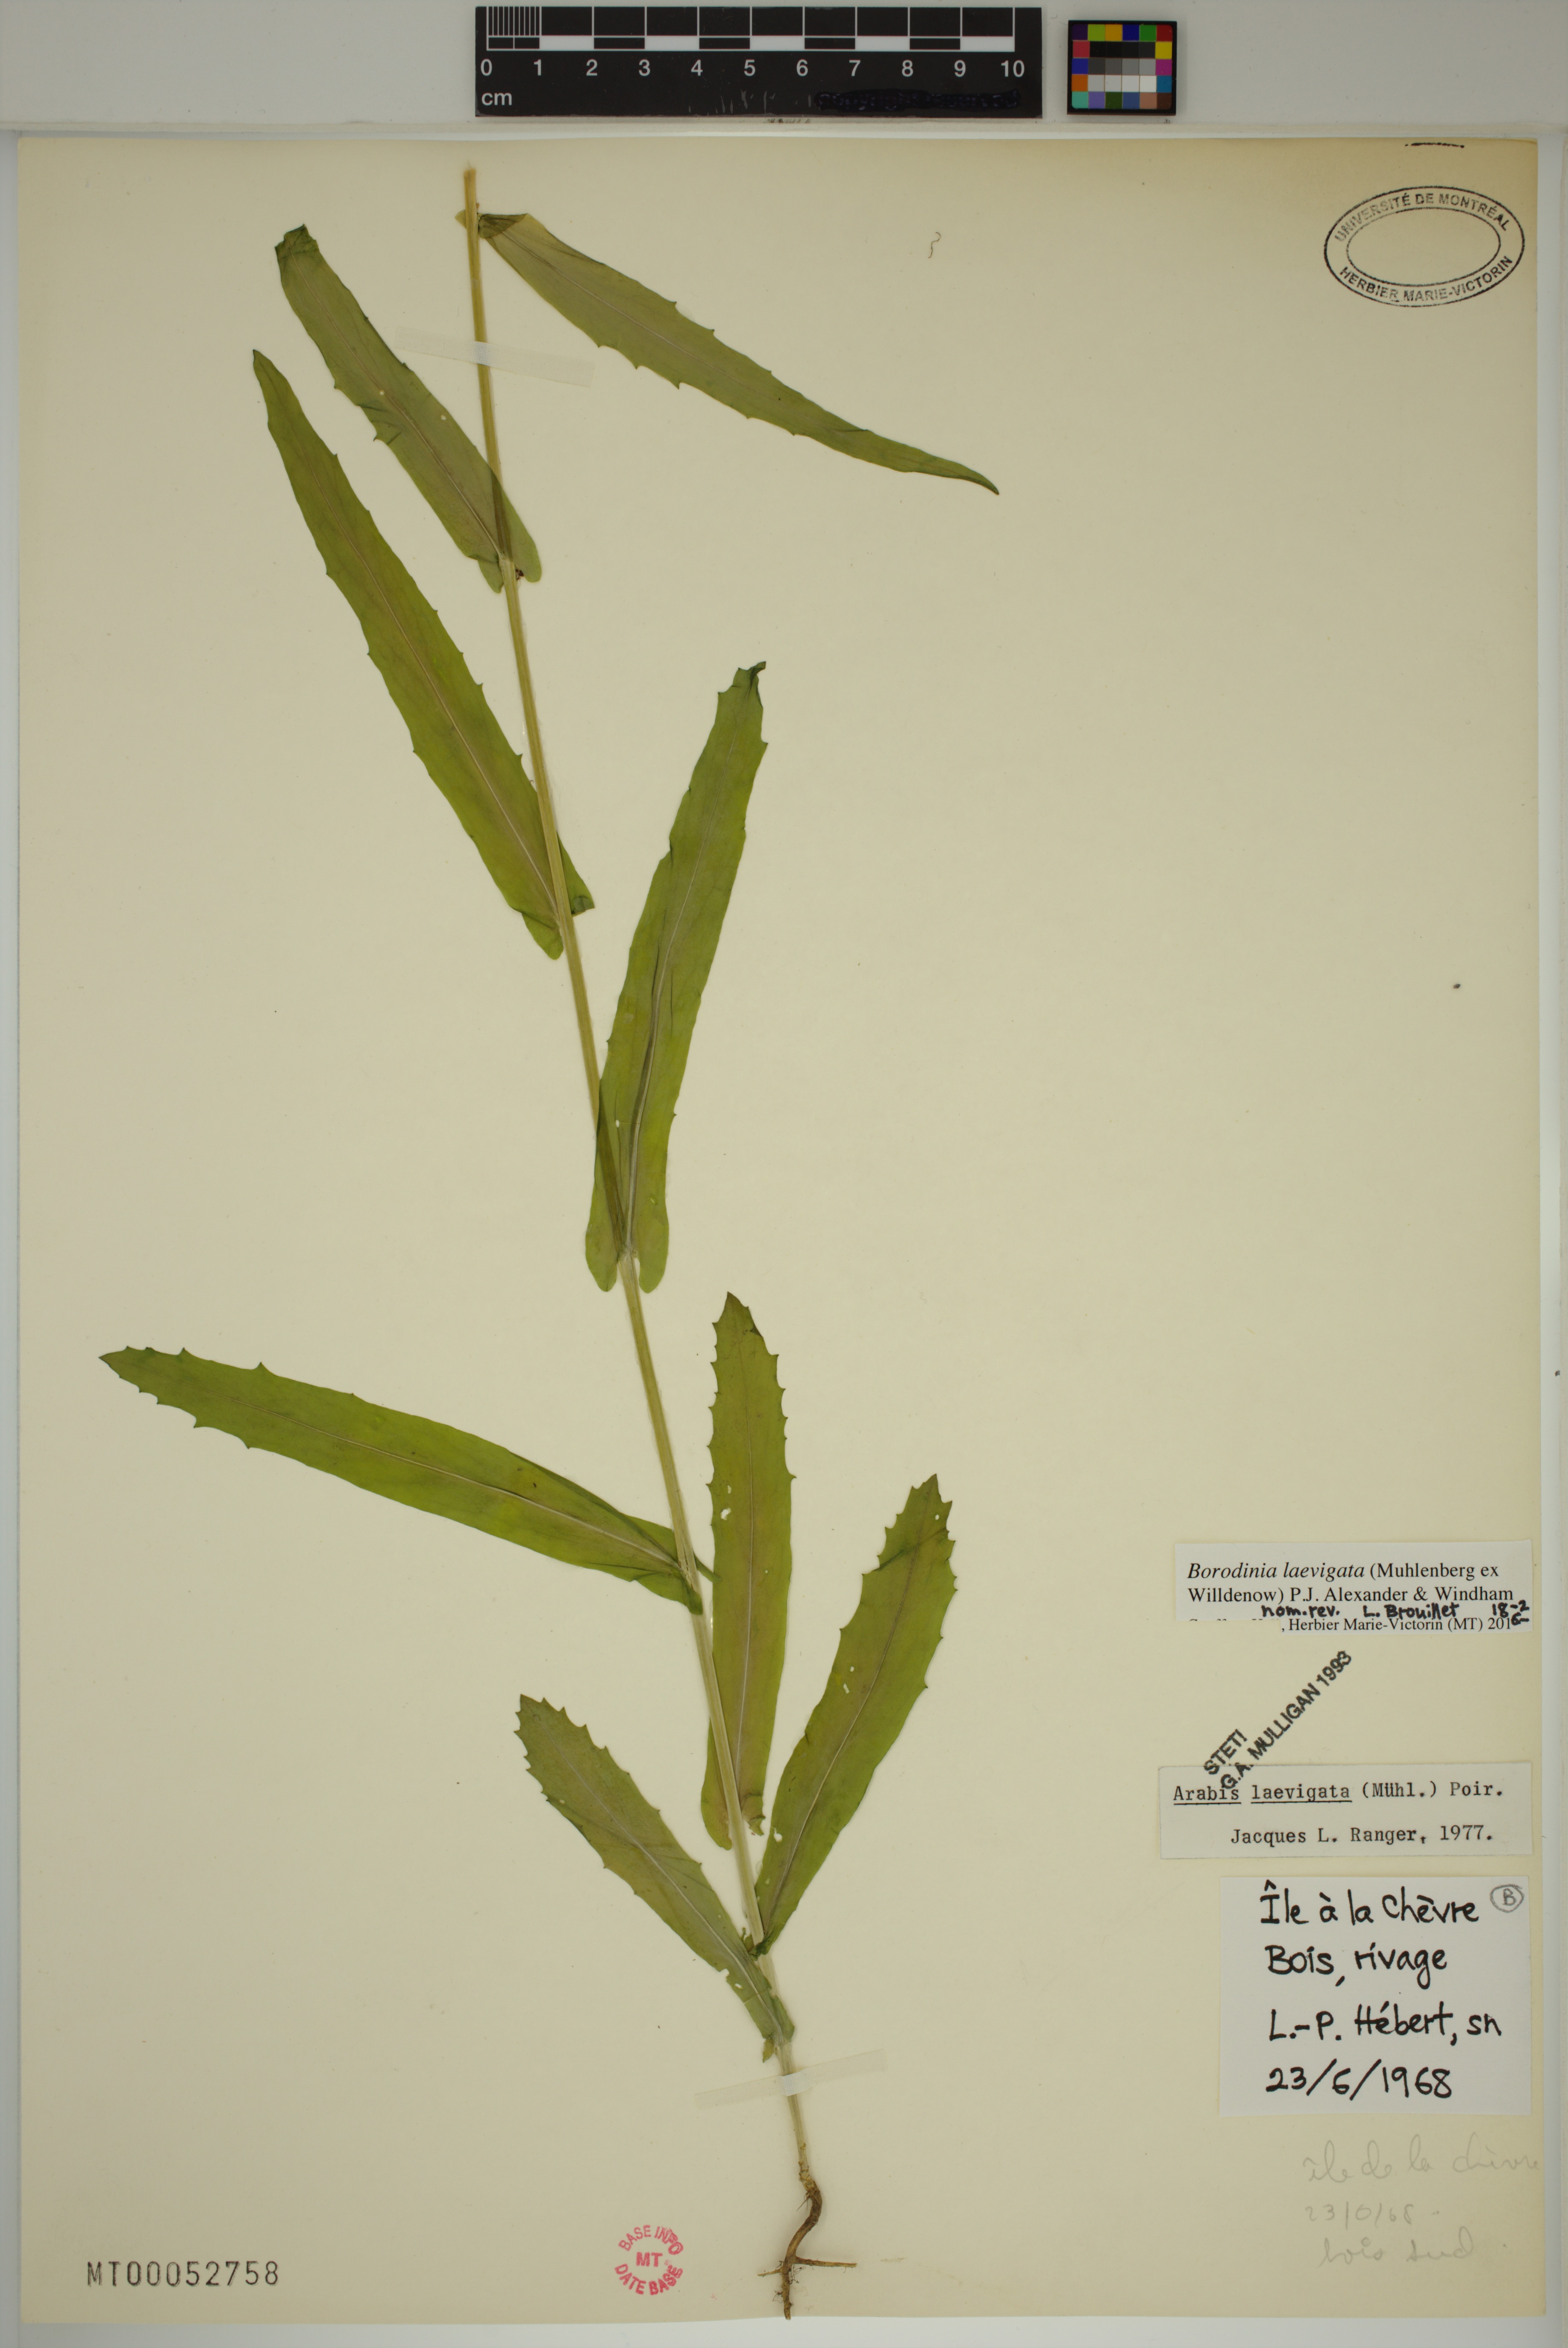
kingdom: Plantae
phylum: Tracheophyta
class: Magnoliopsida
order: Brassicales
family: Brassicaceae
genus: Borodinia
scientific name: Borodinia laevigata
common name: Smooth rockcress
